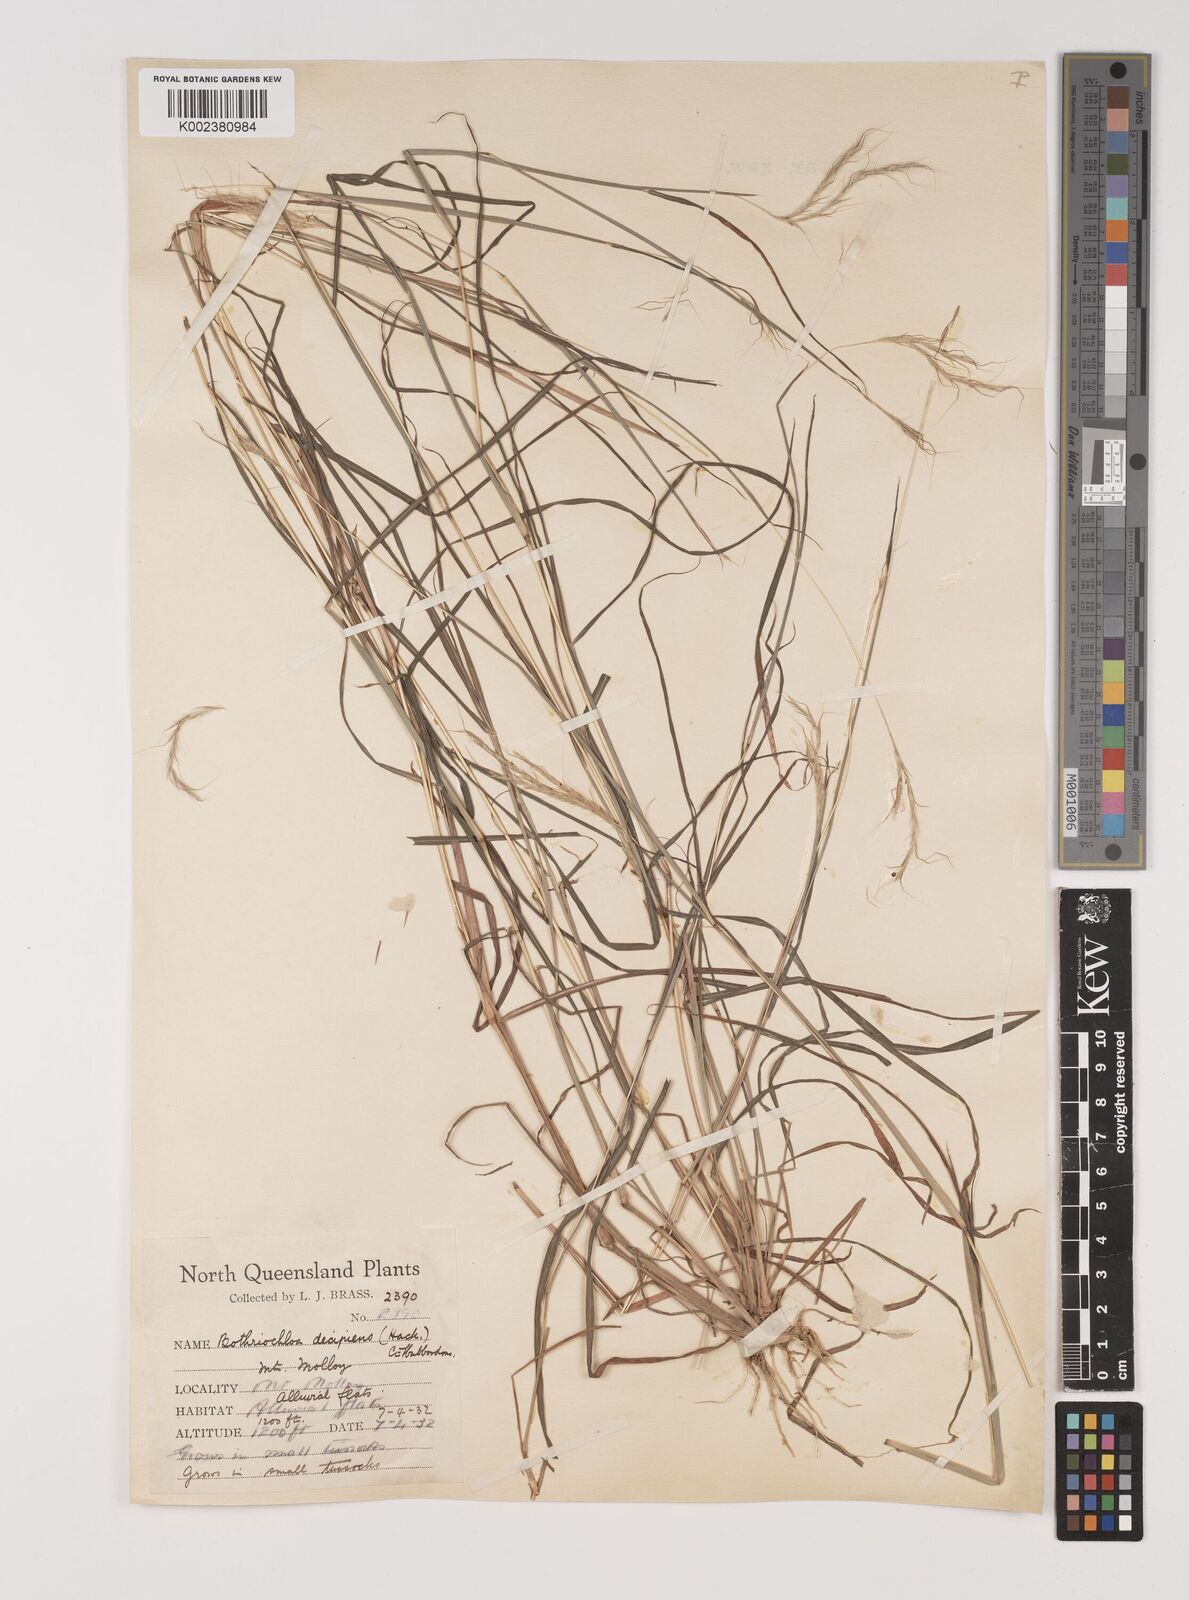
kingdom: Plantae
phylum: Tracheophyta
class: Liliopsida
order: Poales
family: Poaceae
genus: Bothriochloa
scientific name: Bothriochloa decipiens
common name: Pitted-bluegrass
